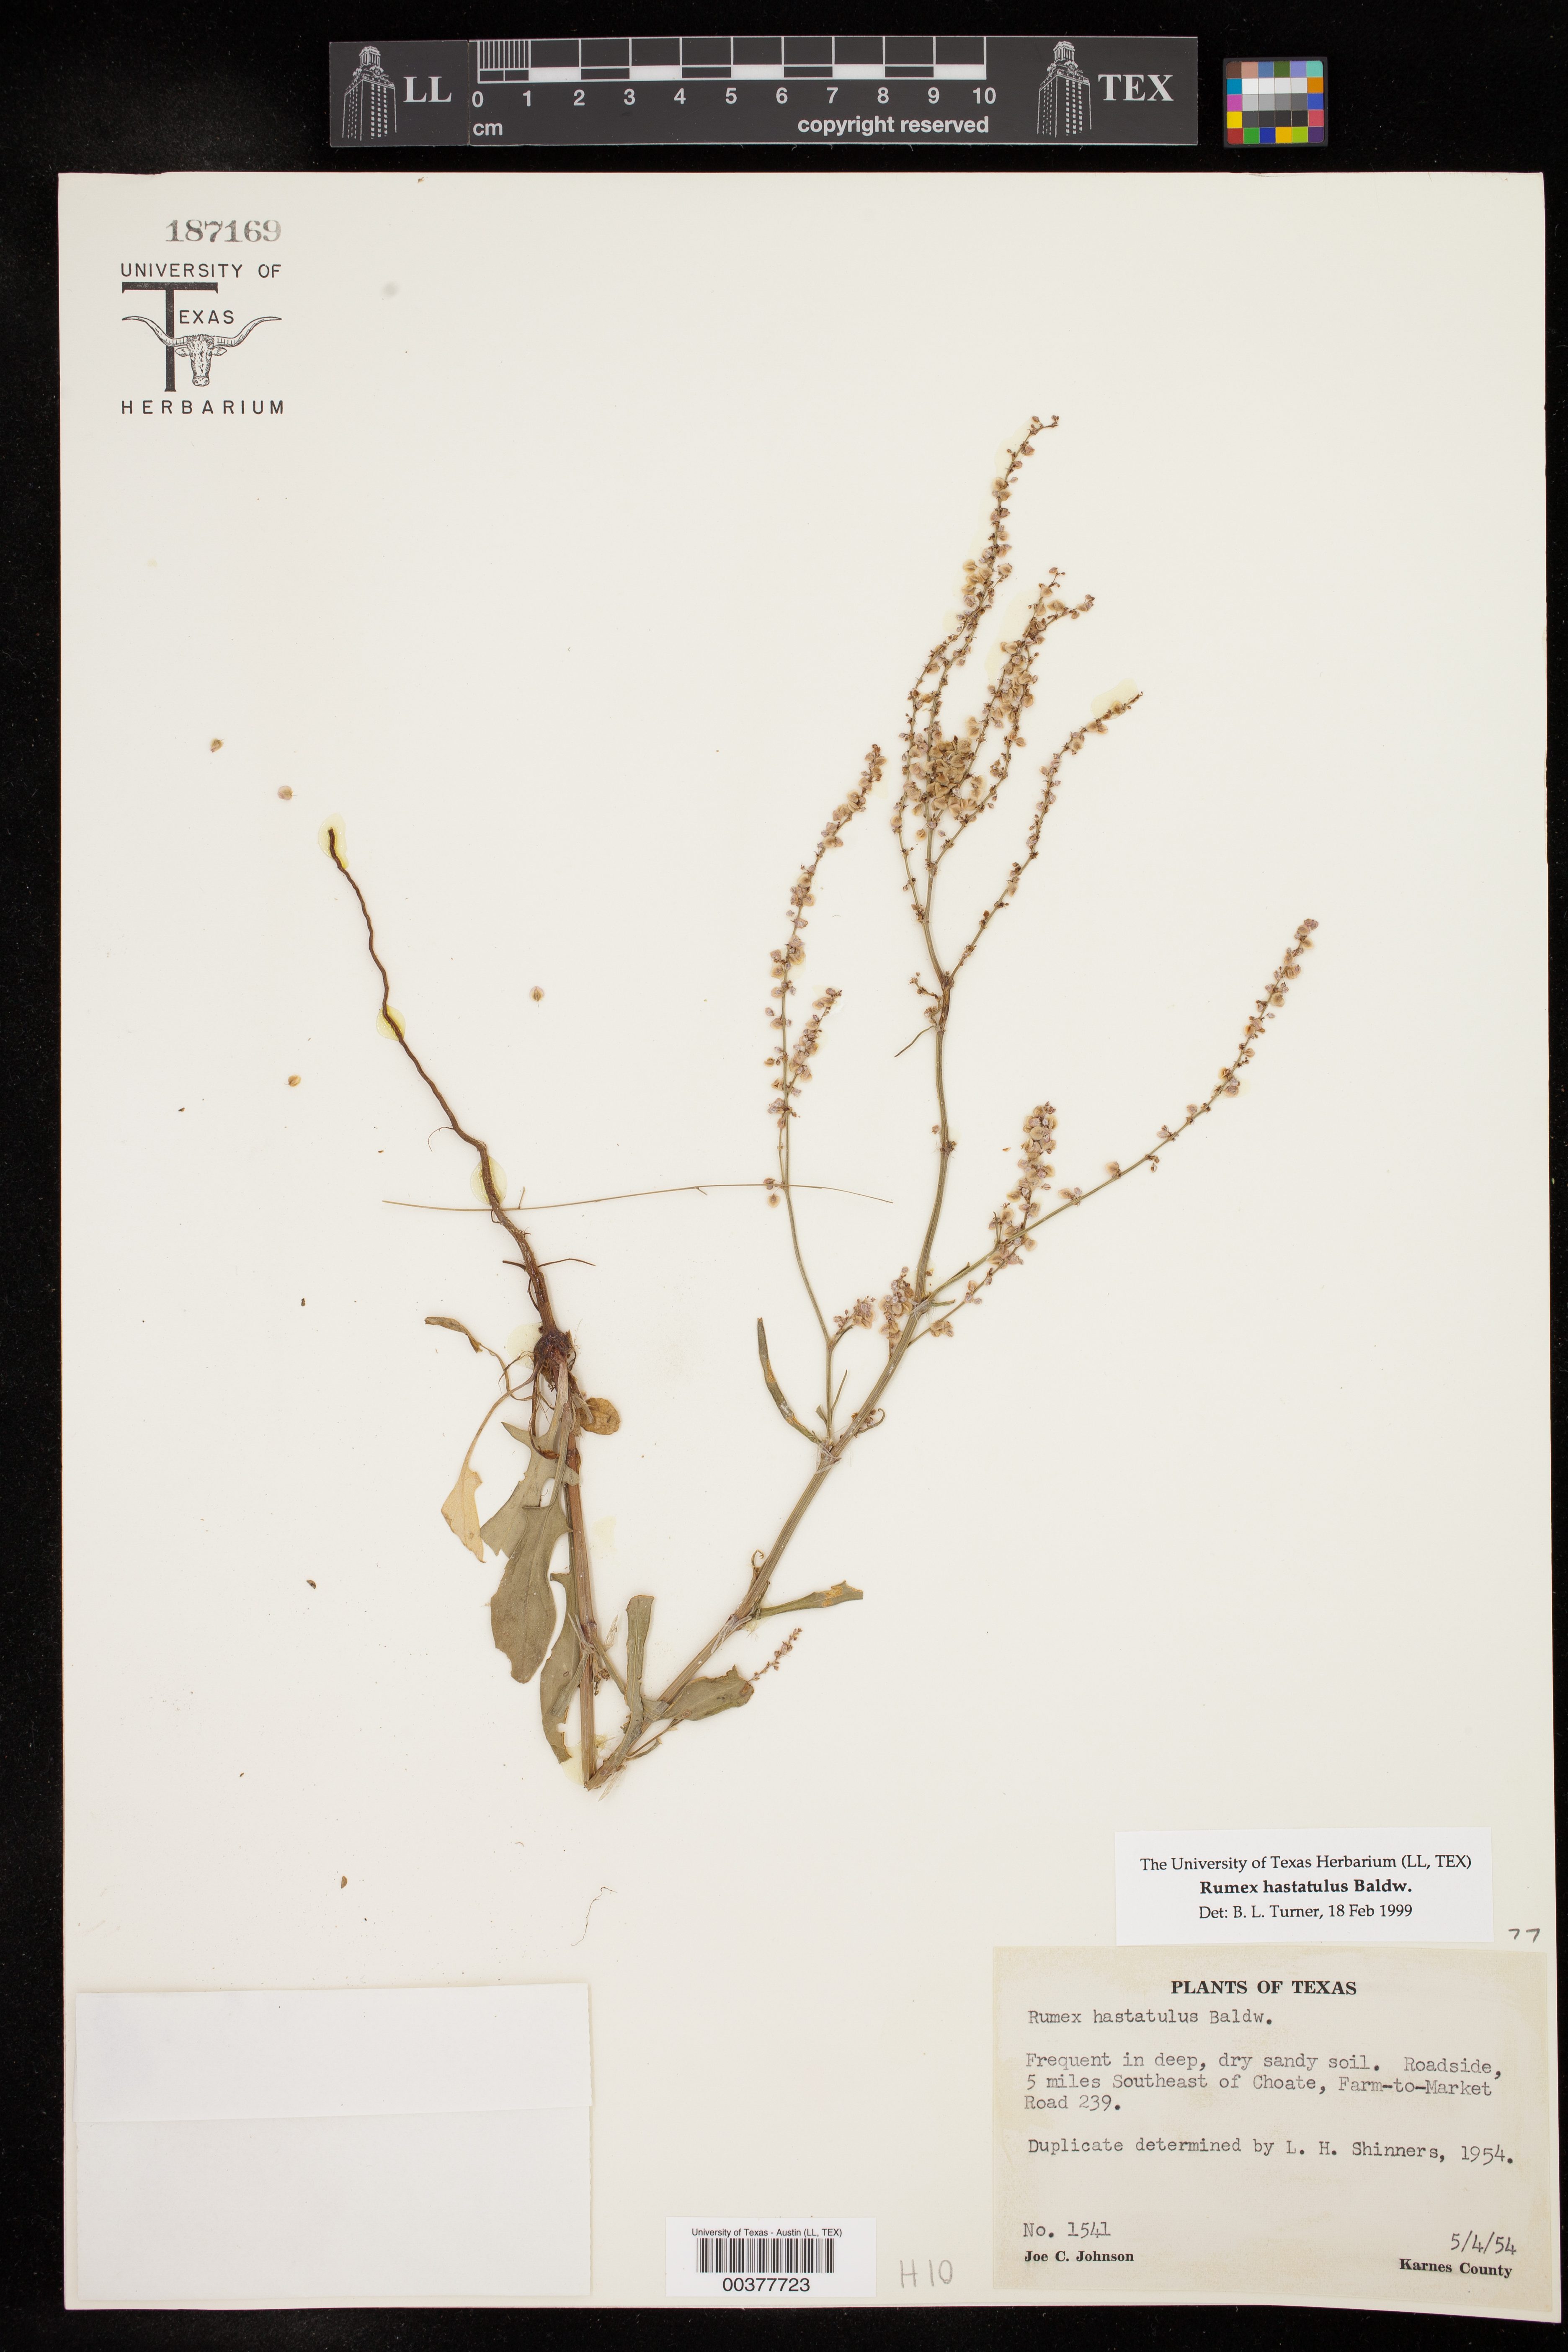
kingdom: Plantae
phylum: Tracheophyta
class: Magnoliopsida
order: Caryophyllales
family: Polygonaceae
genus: Rumex
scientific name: Rumex hastatulus
